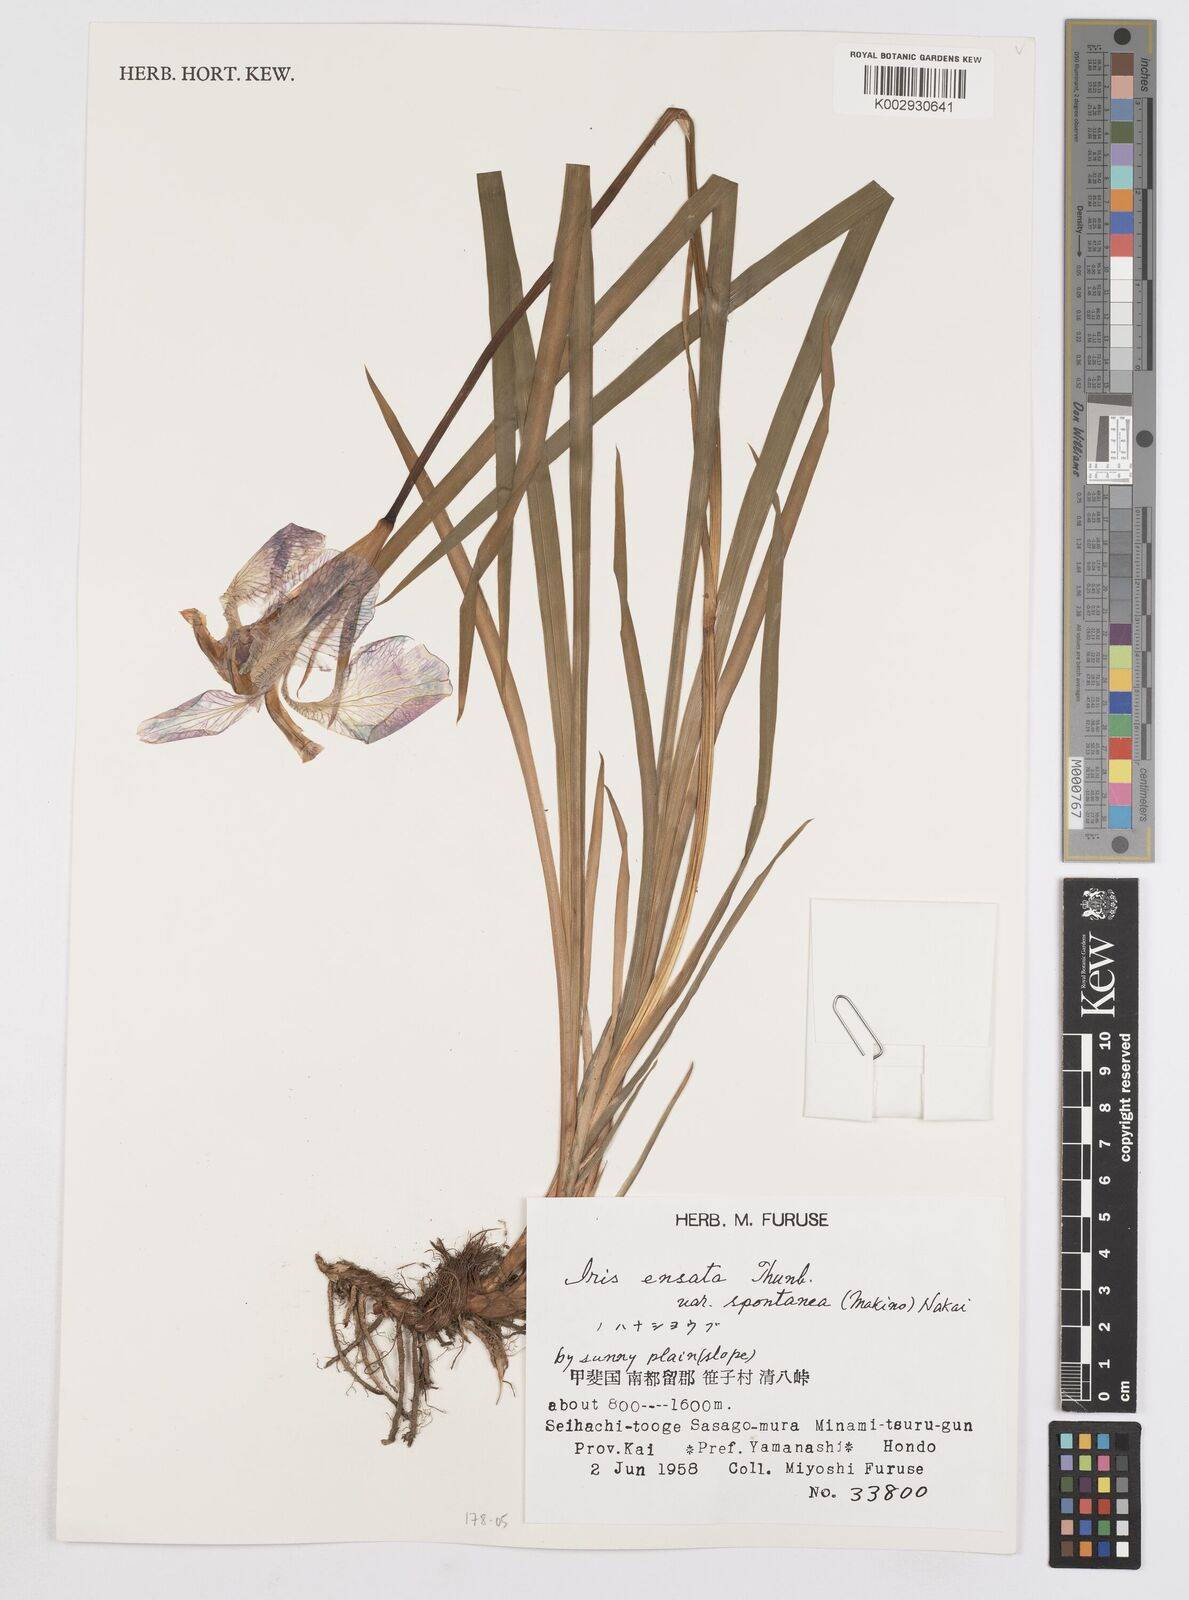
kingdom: Plantae
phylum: Tracheophyta
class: Liliopsida
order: Asparagales
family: Iridaceae
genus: Iris
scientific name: Iris ensata
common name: Beaked iris
